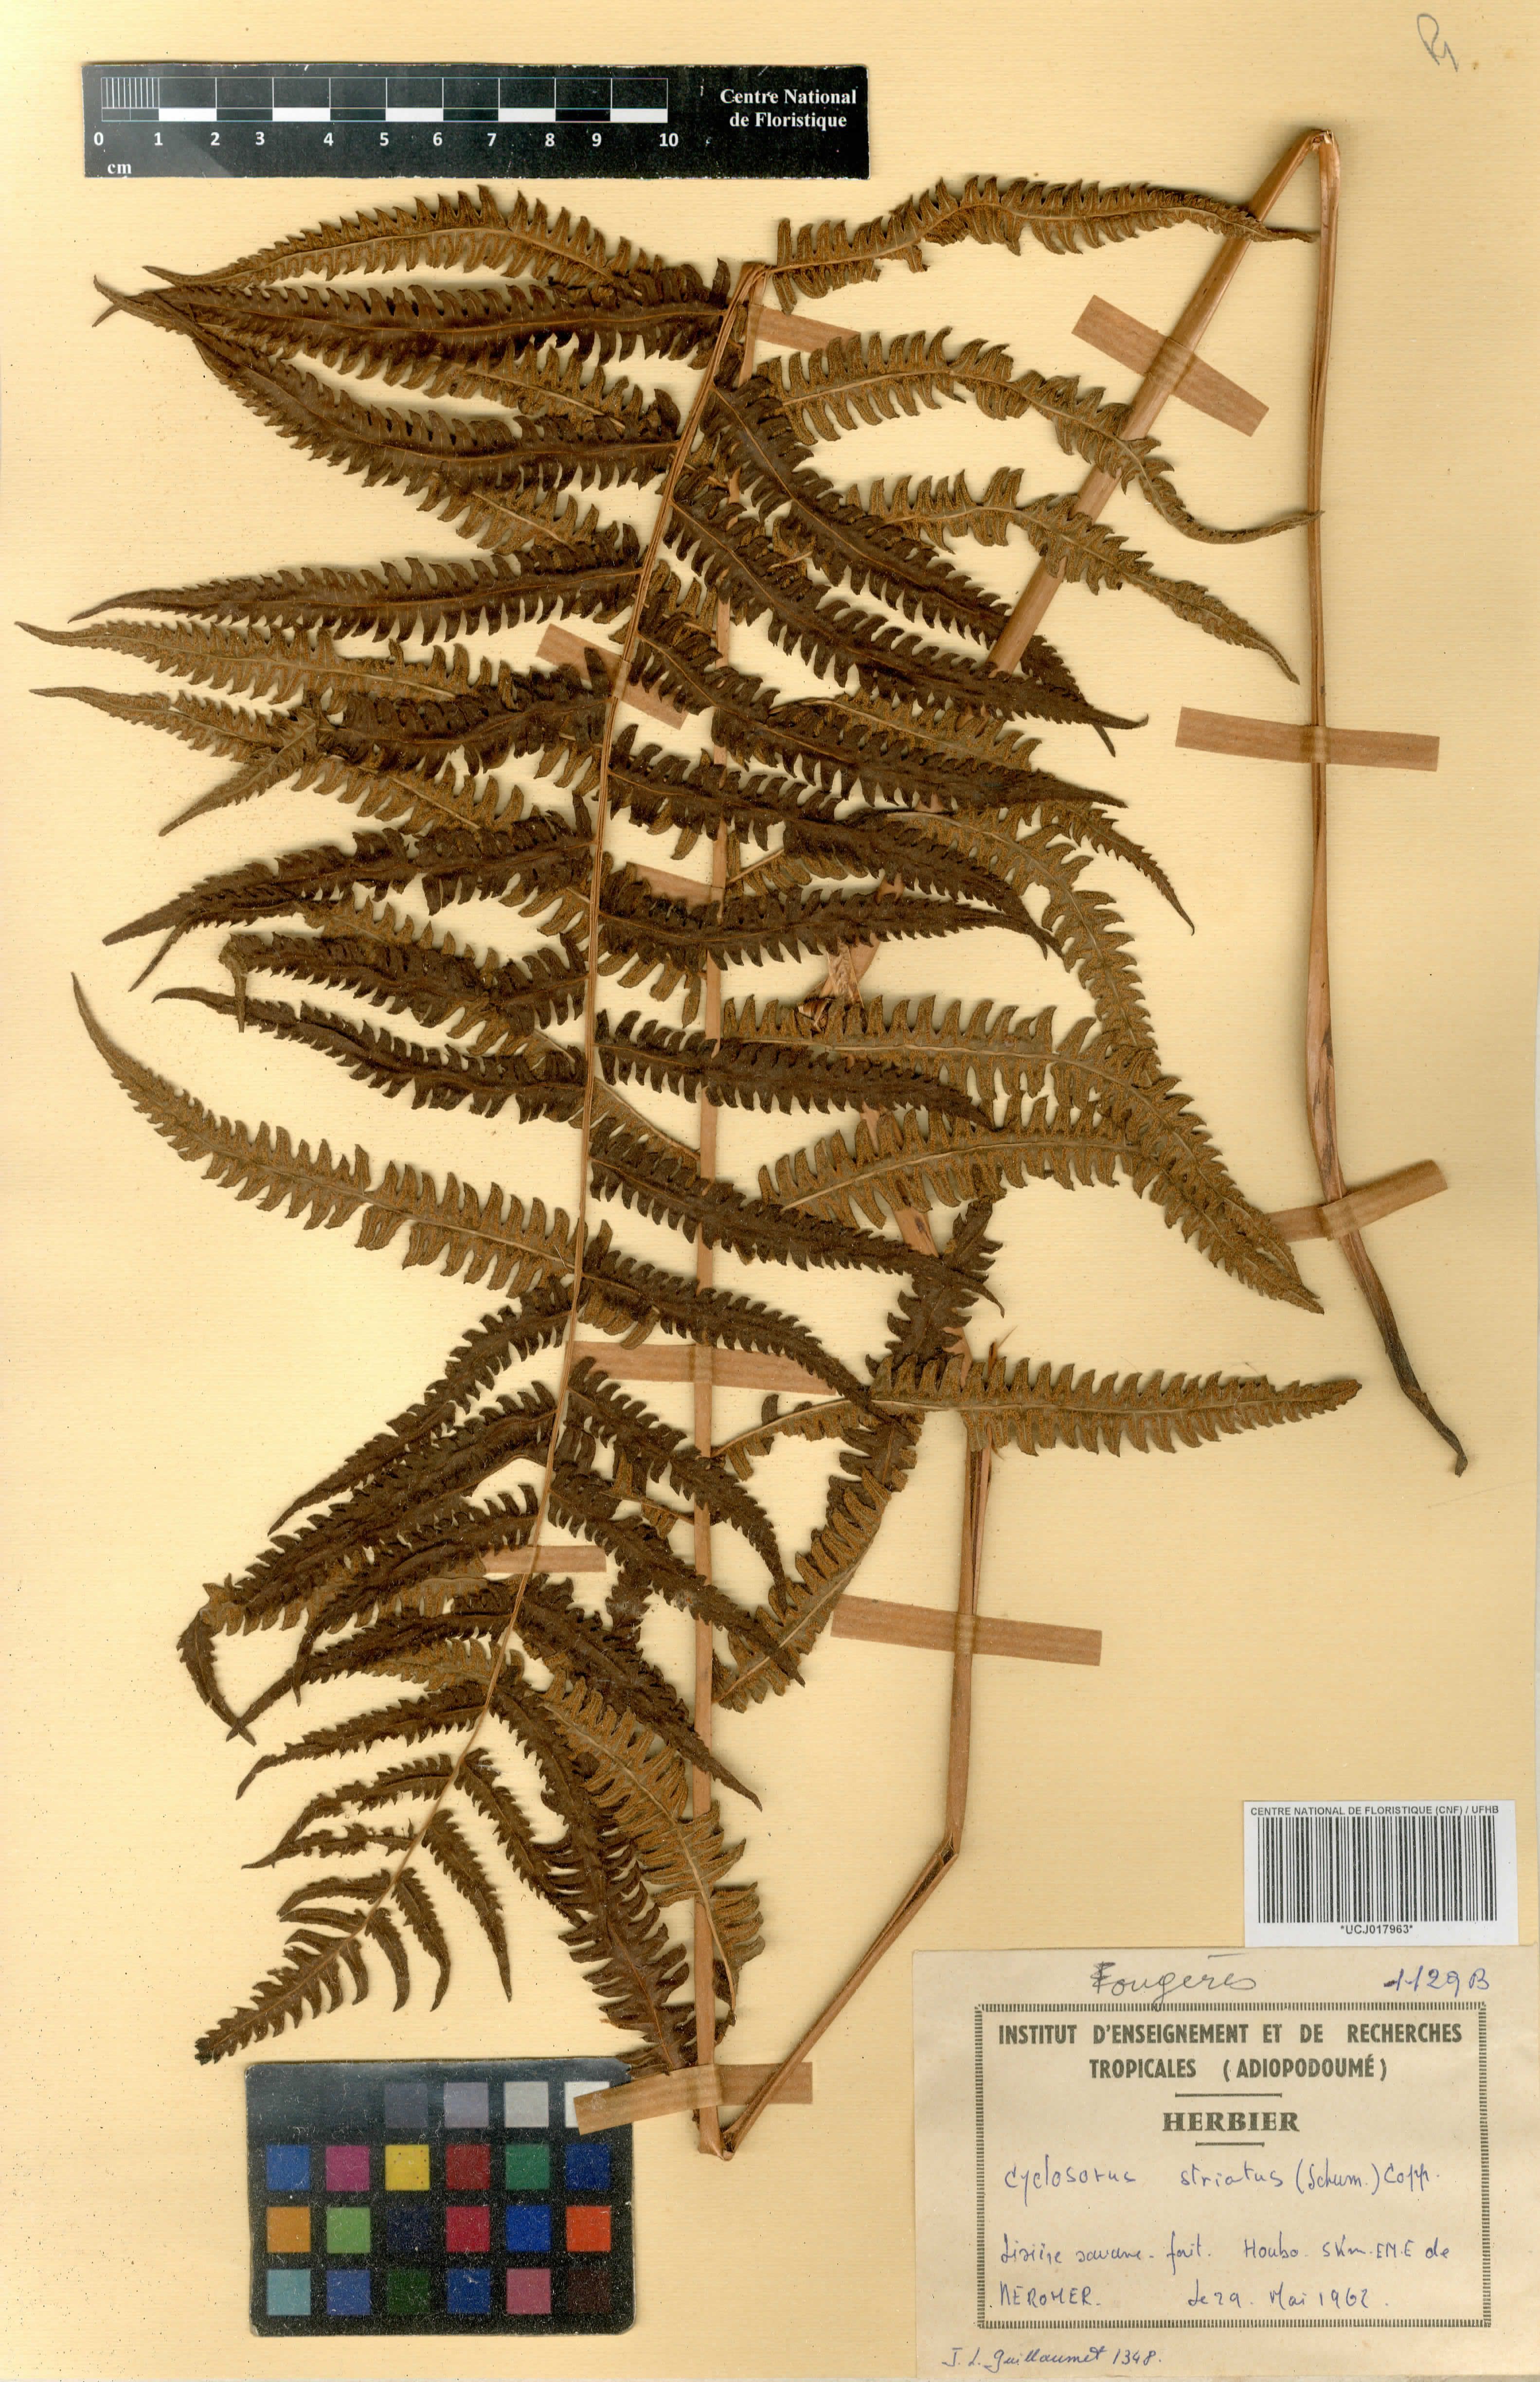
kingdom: Plantae
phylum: Tracheophyta
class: Polypodiopsida
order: Polypodiales
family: Thelypteridaceae
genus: Cyclosorus
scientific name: Cyclosorus striatus
